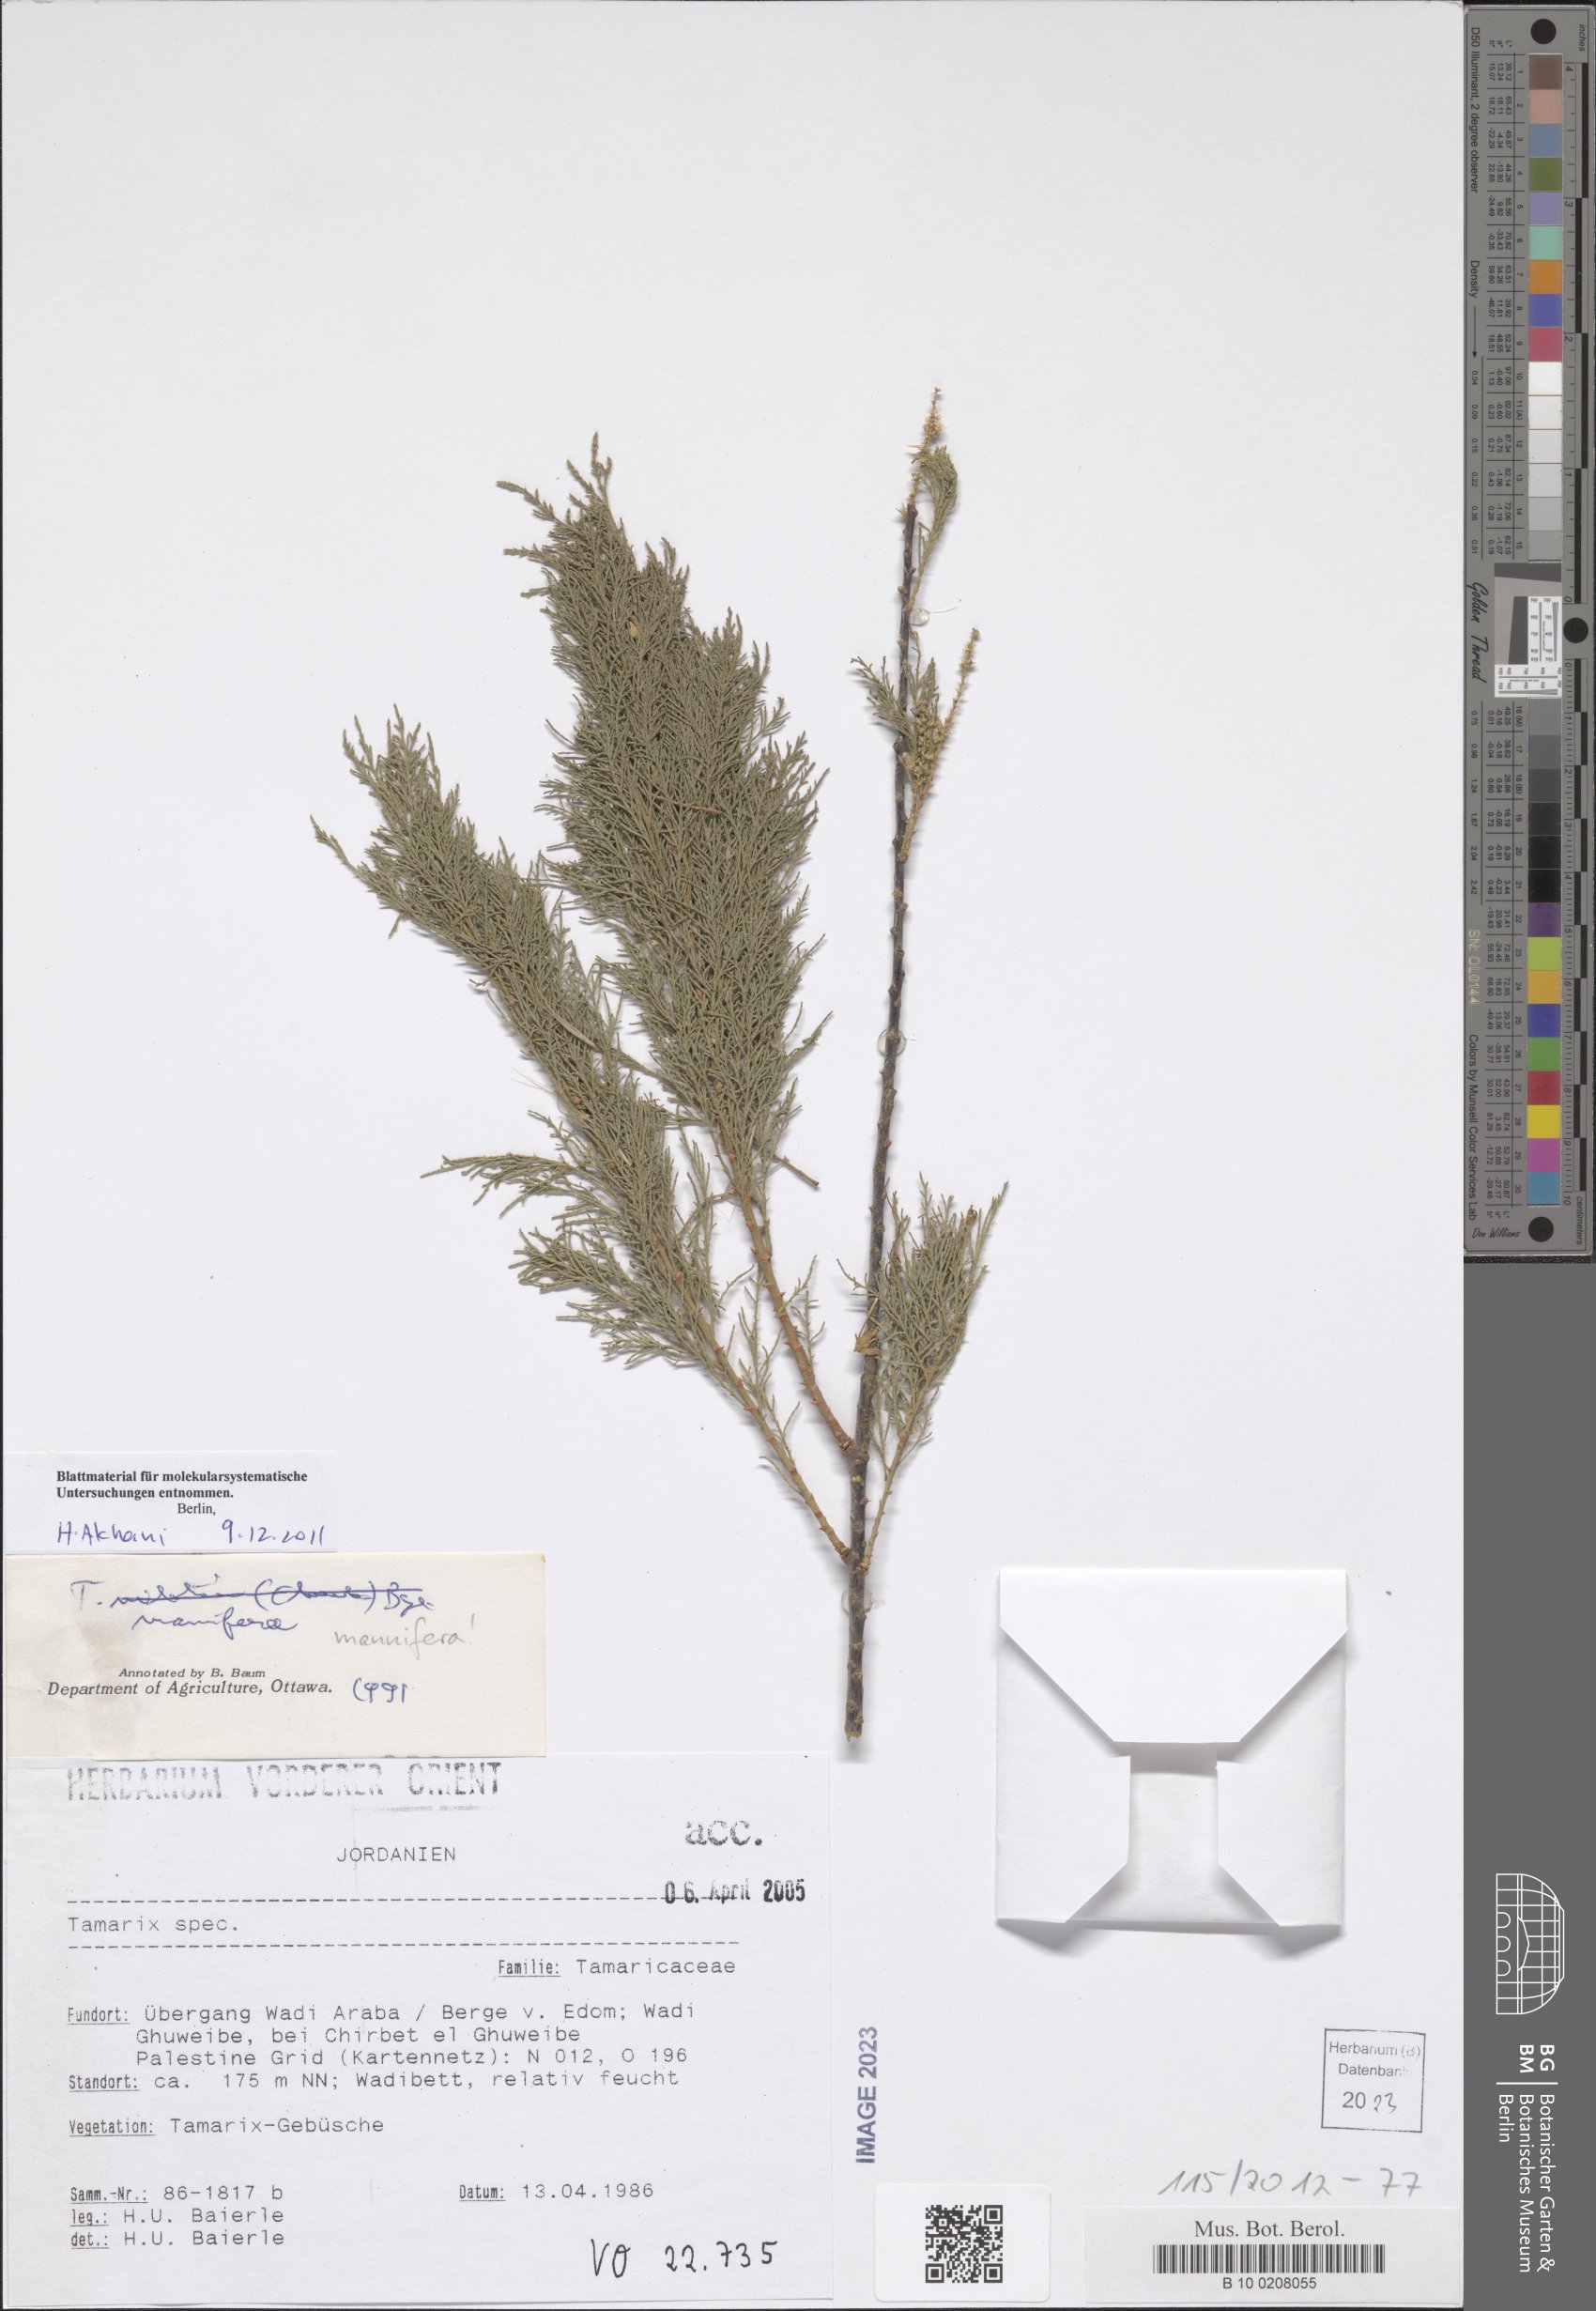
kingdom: Plantae
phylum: Tracheophyta
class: Magnoliopsida
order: Caryophyllales
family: Tamaricaceae
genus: Tamarix
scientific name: Tamarix senegalensis
